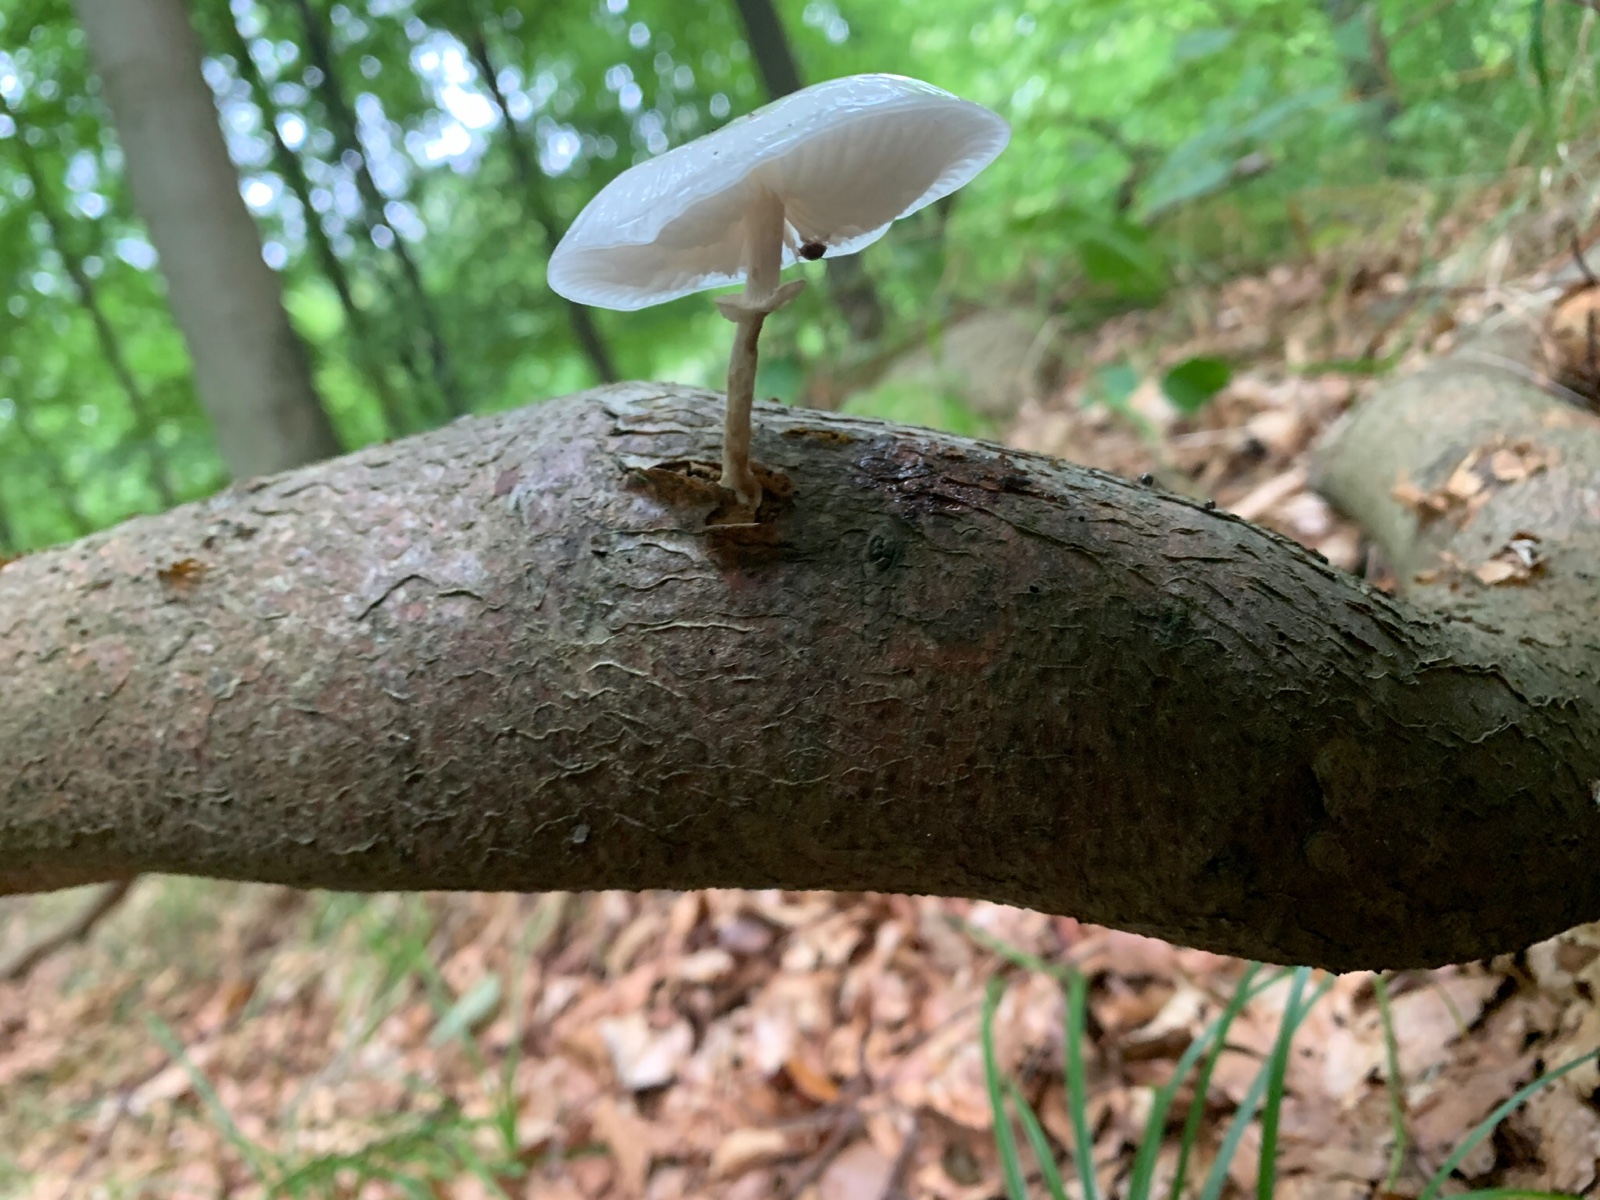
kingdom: Fungi
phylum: Basidiomycota
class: Agaricomycetes
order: Agaricales
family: Physalacriaceae
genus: Mucidula
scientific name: Mucidula mucida
